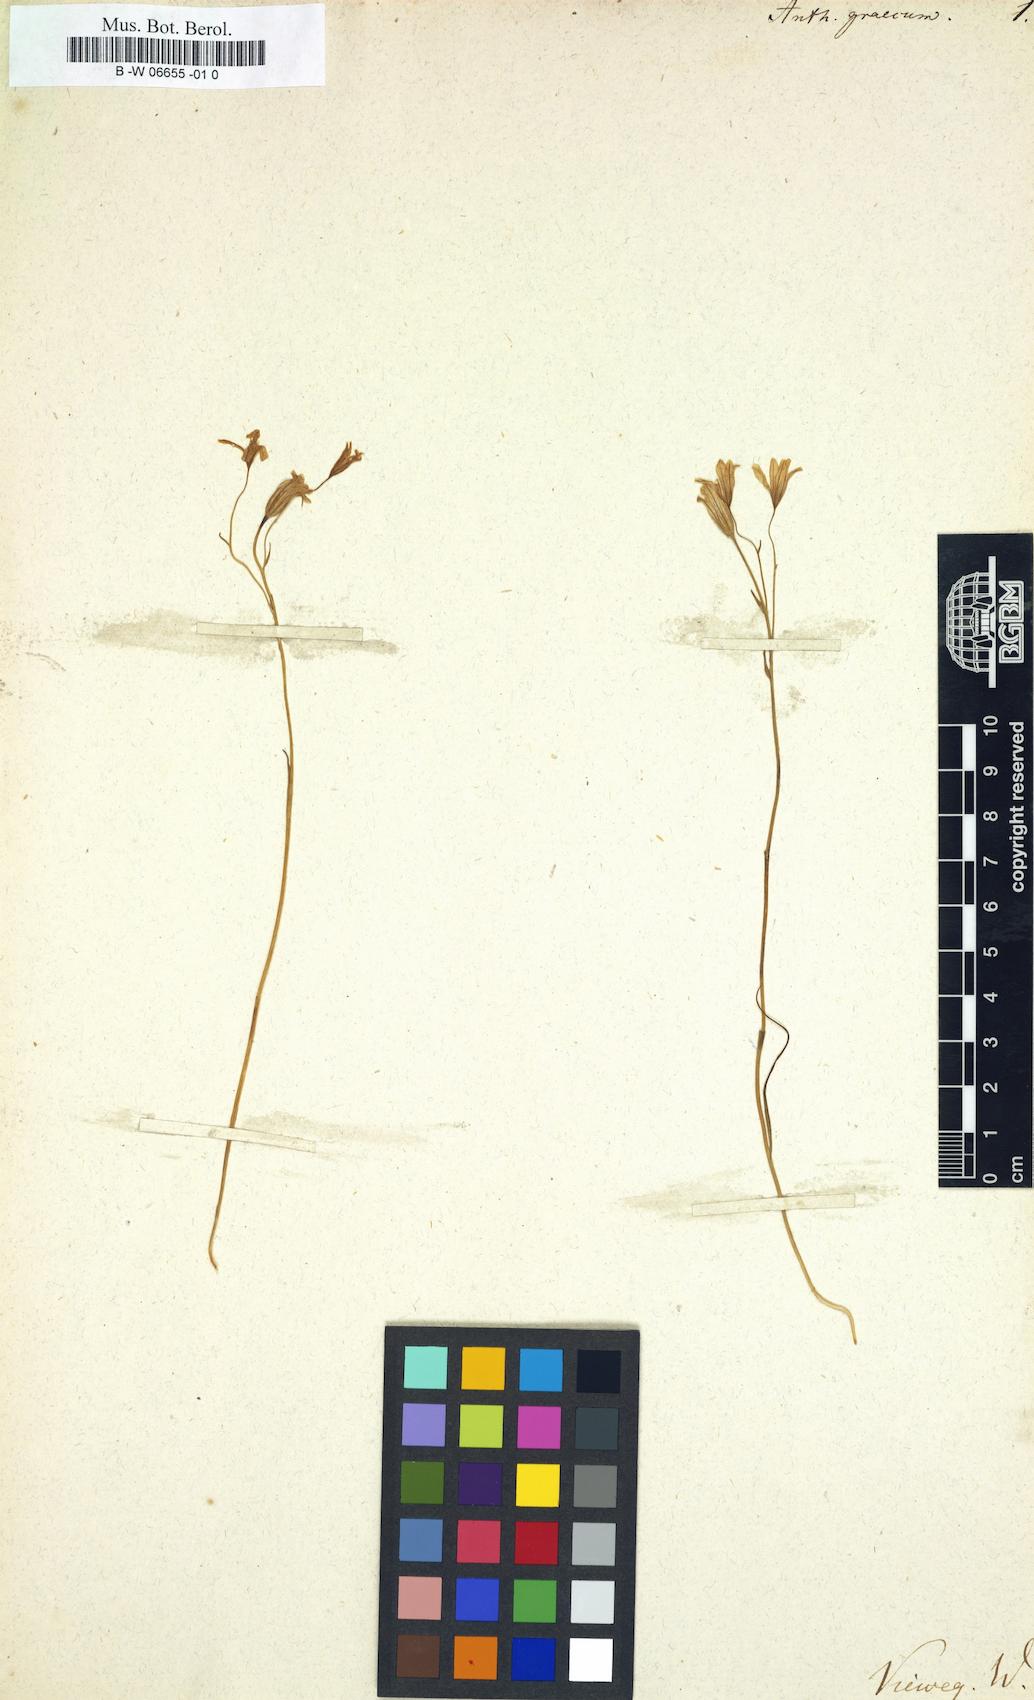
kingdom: Plantae
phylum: Tracheophyta
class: Liliopsida
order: Liliales
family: Liliaceae
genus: Gagea
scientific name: Gagea graeca
